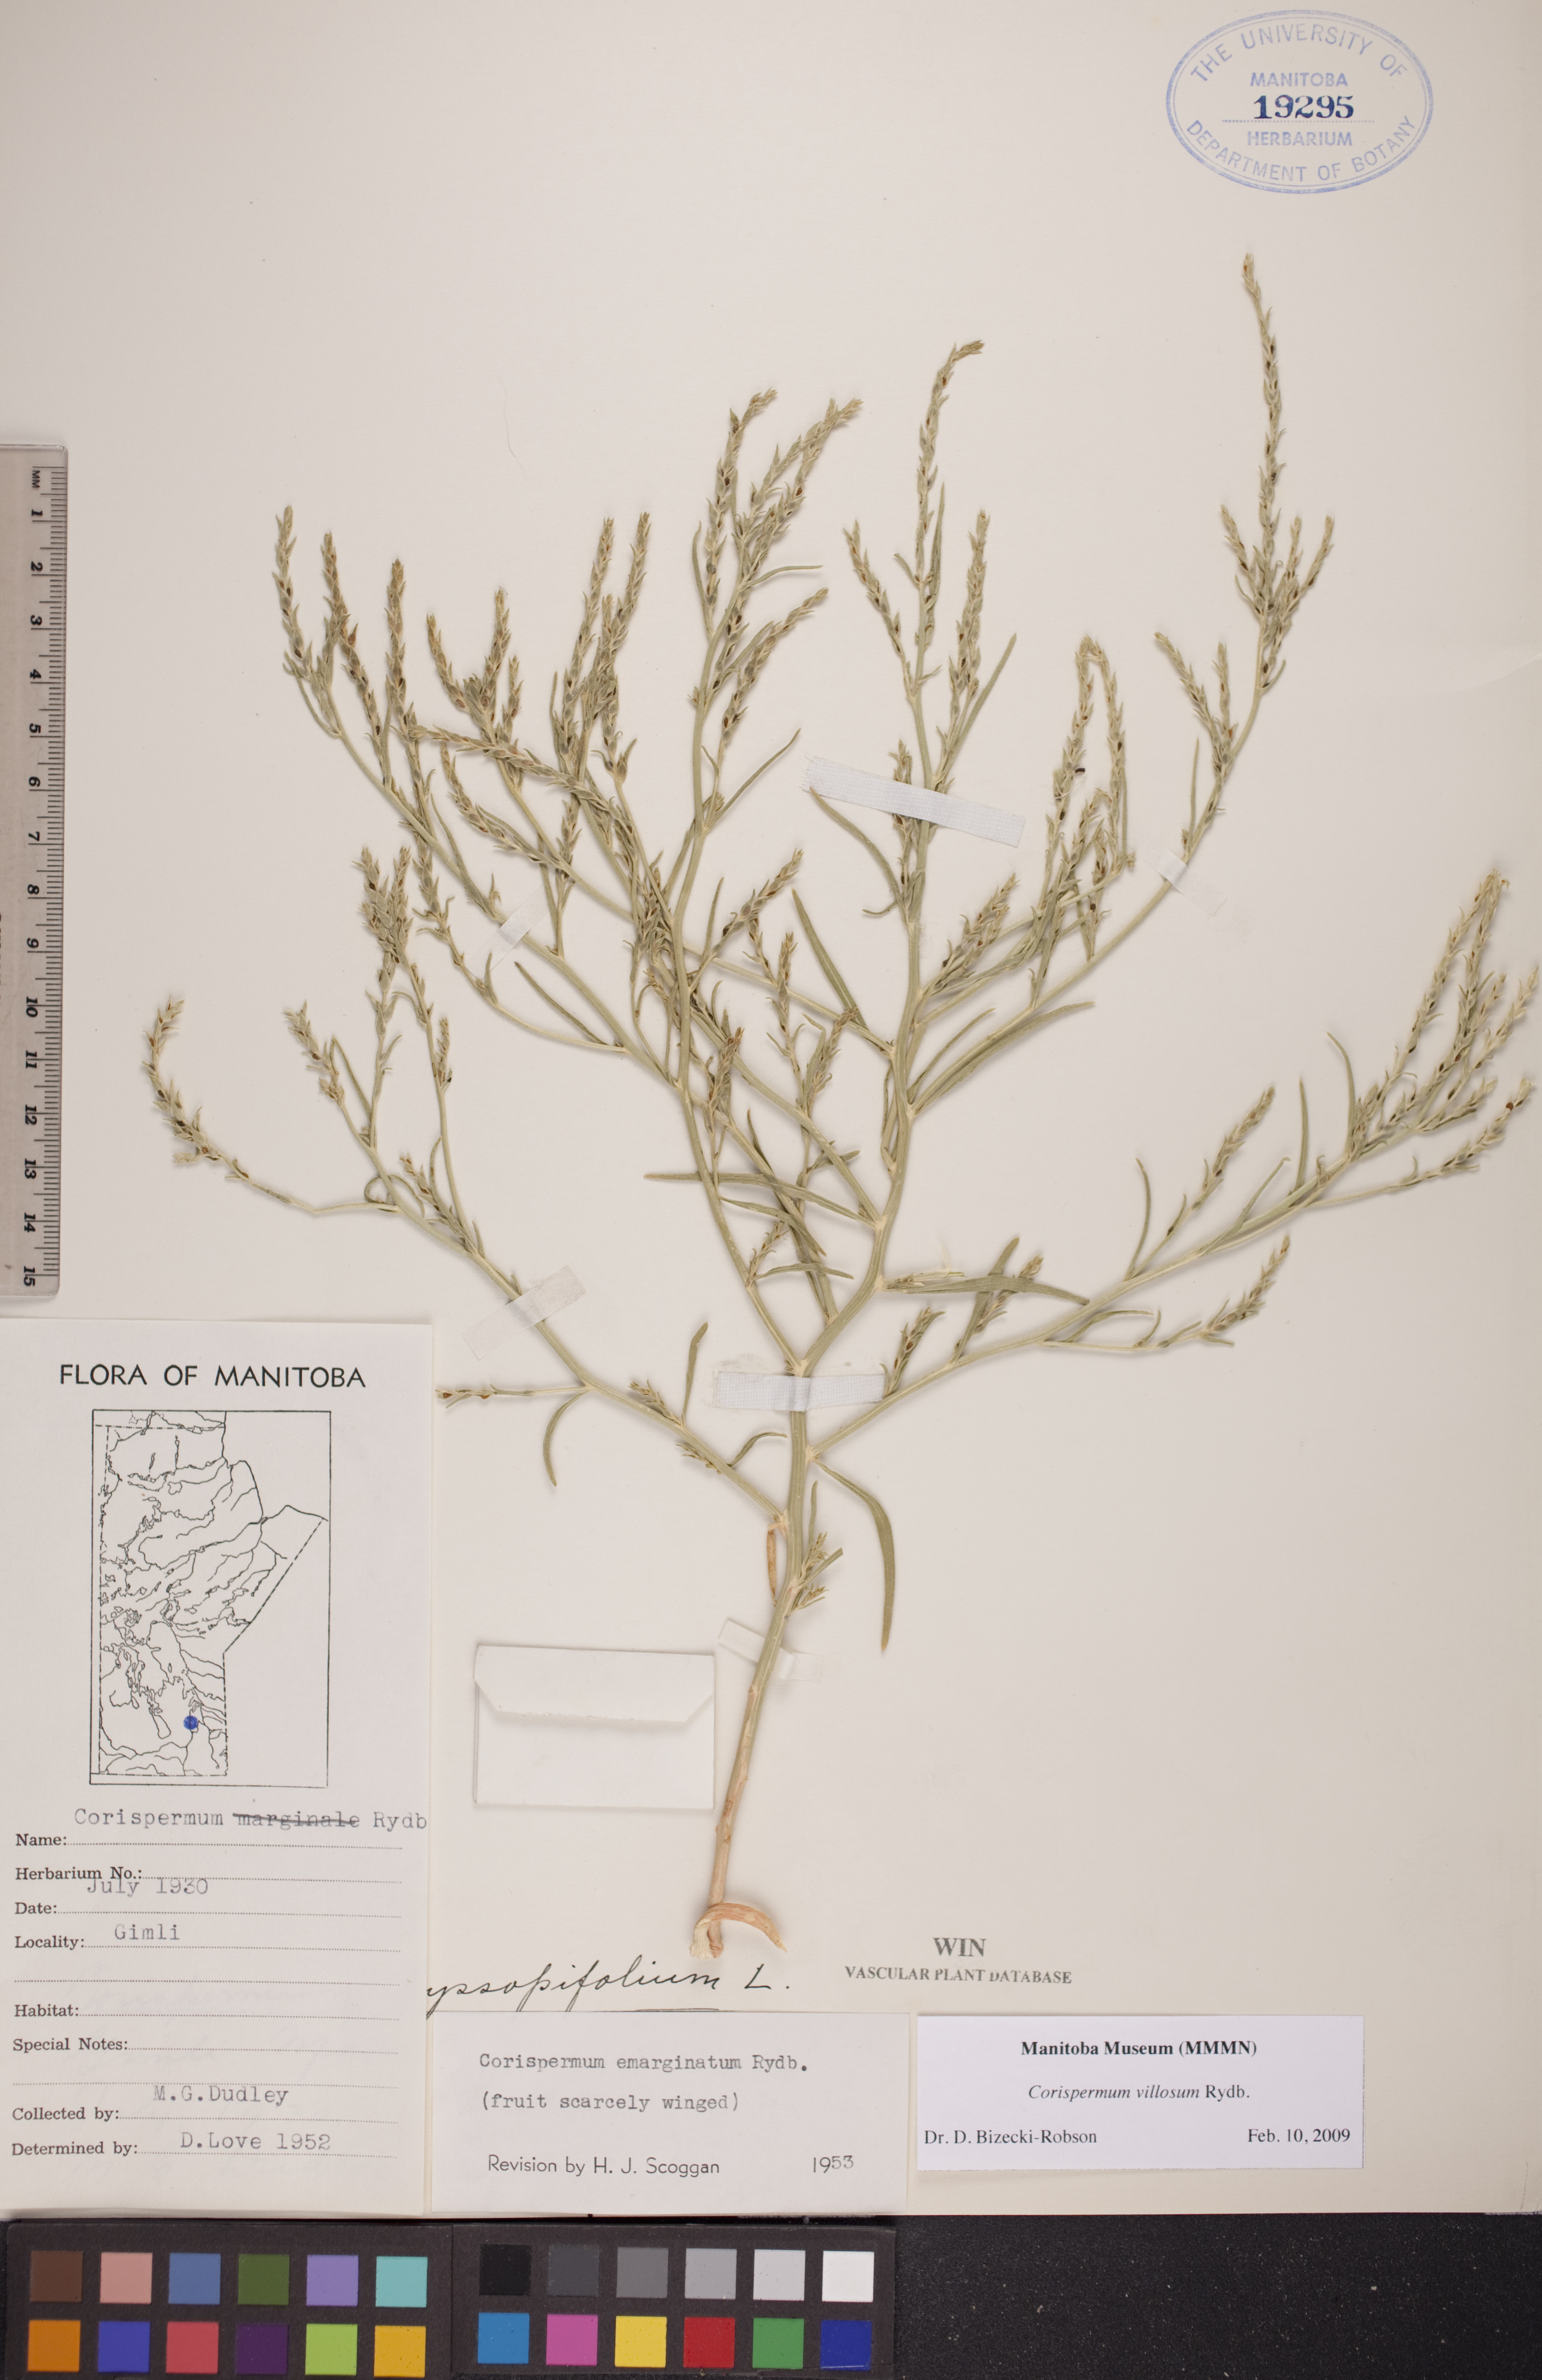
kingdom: Plantae
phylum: Tracheophyta
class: Magnoliopsida
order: Caryophyllales
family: Amaranthaceae
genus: Corispermum
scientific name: Corispermum villosum
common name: Hairy bugseed
